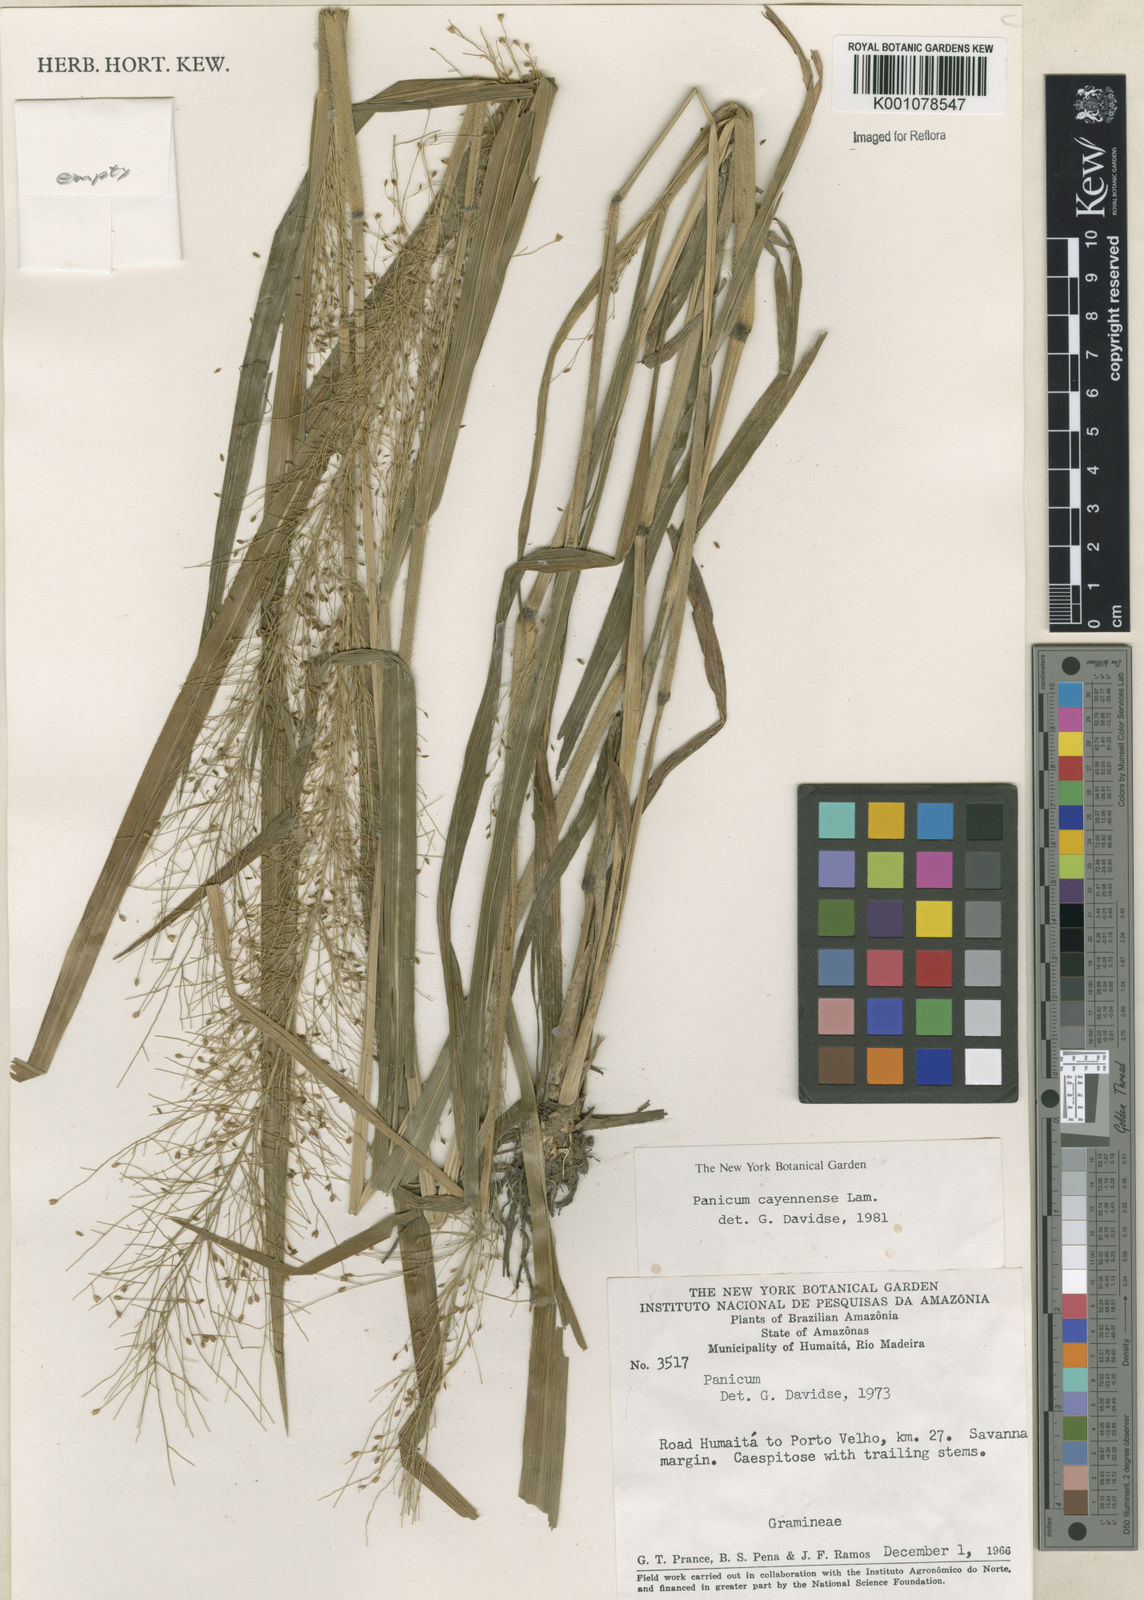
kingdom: Plantae
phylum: Tracheophyta
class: Liliopsida
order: Poales
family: Poaceae
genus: Panicum
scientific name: Panicum cayennense
